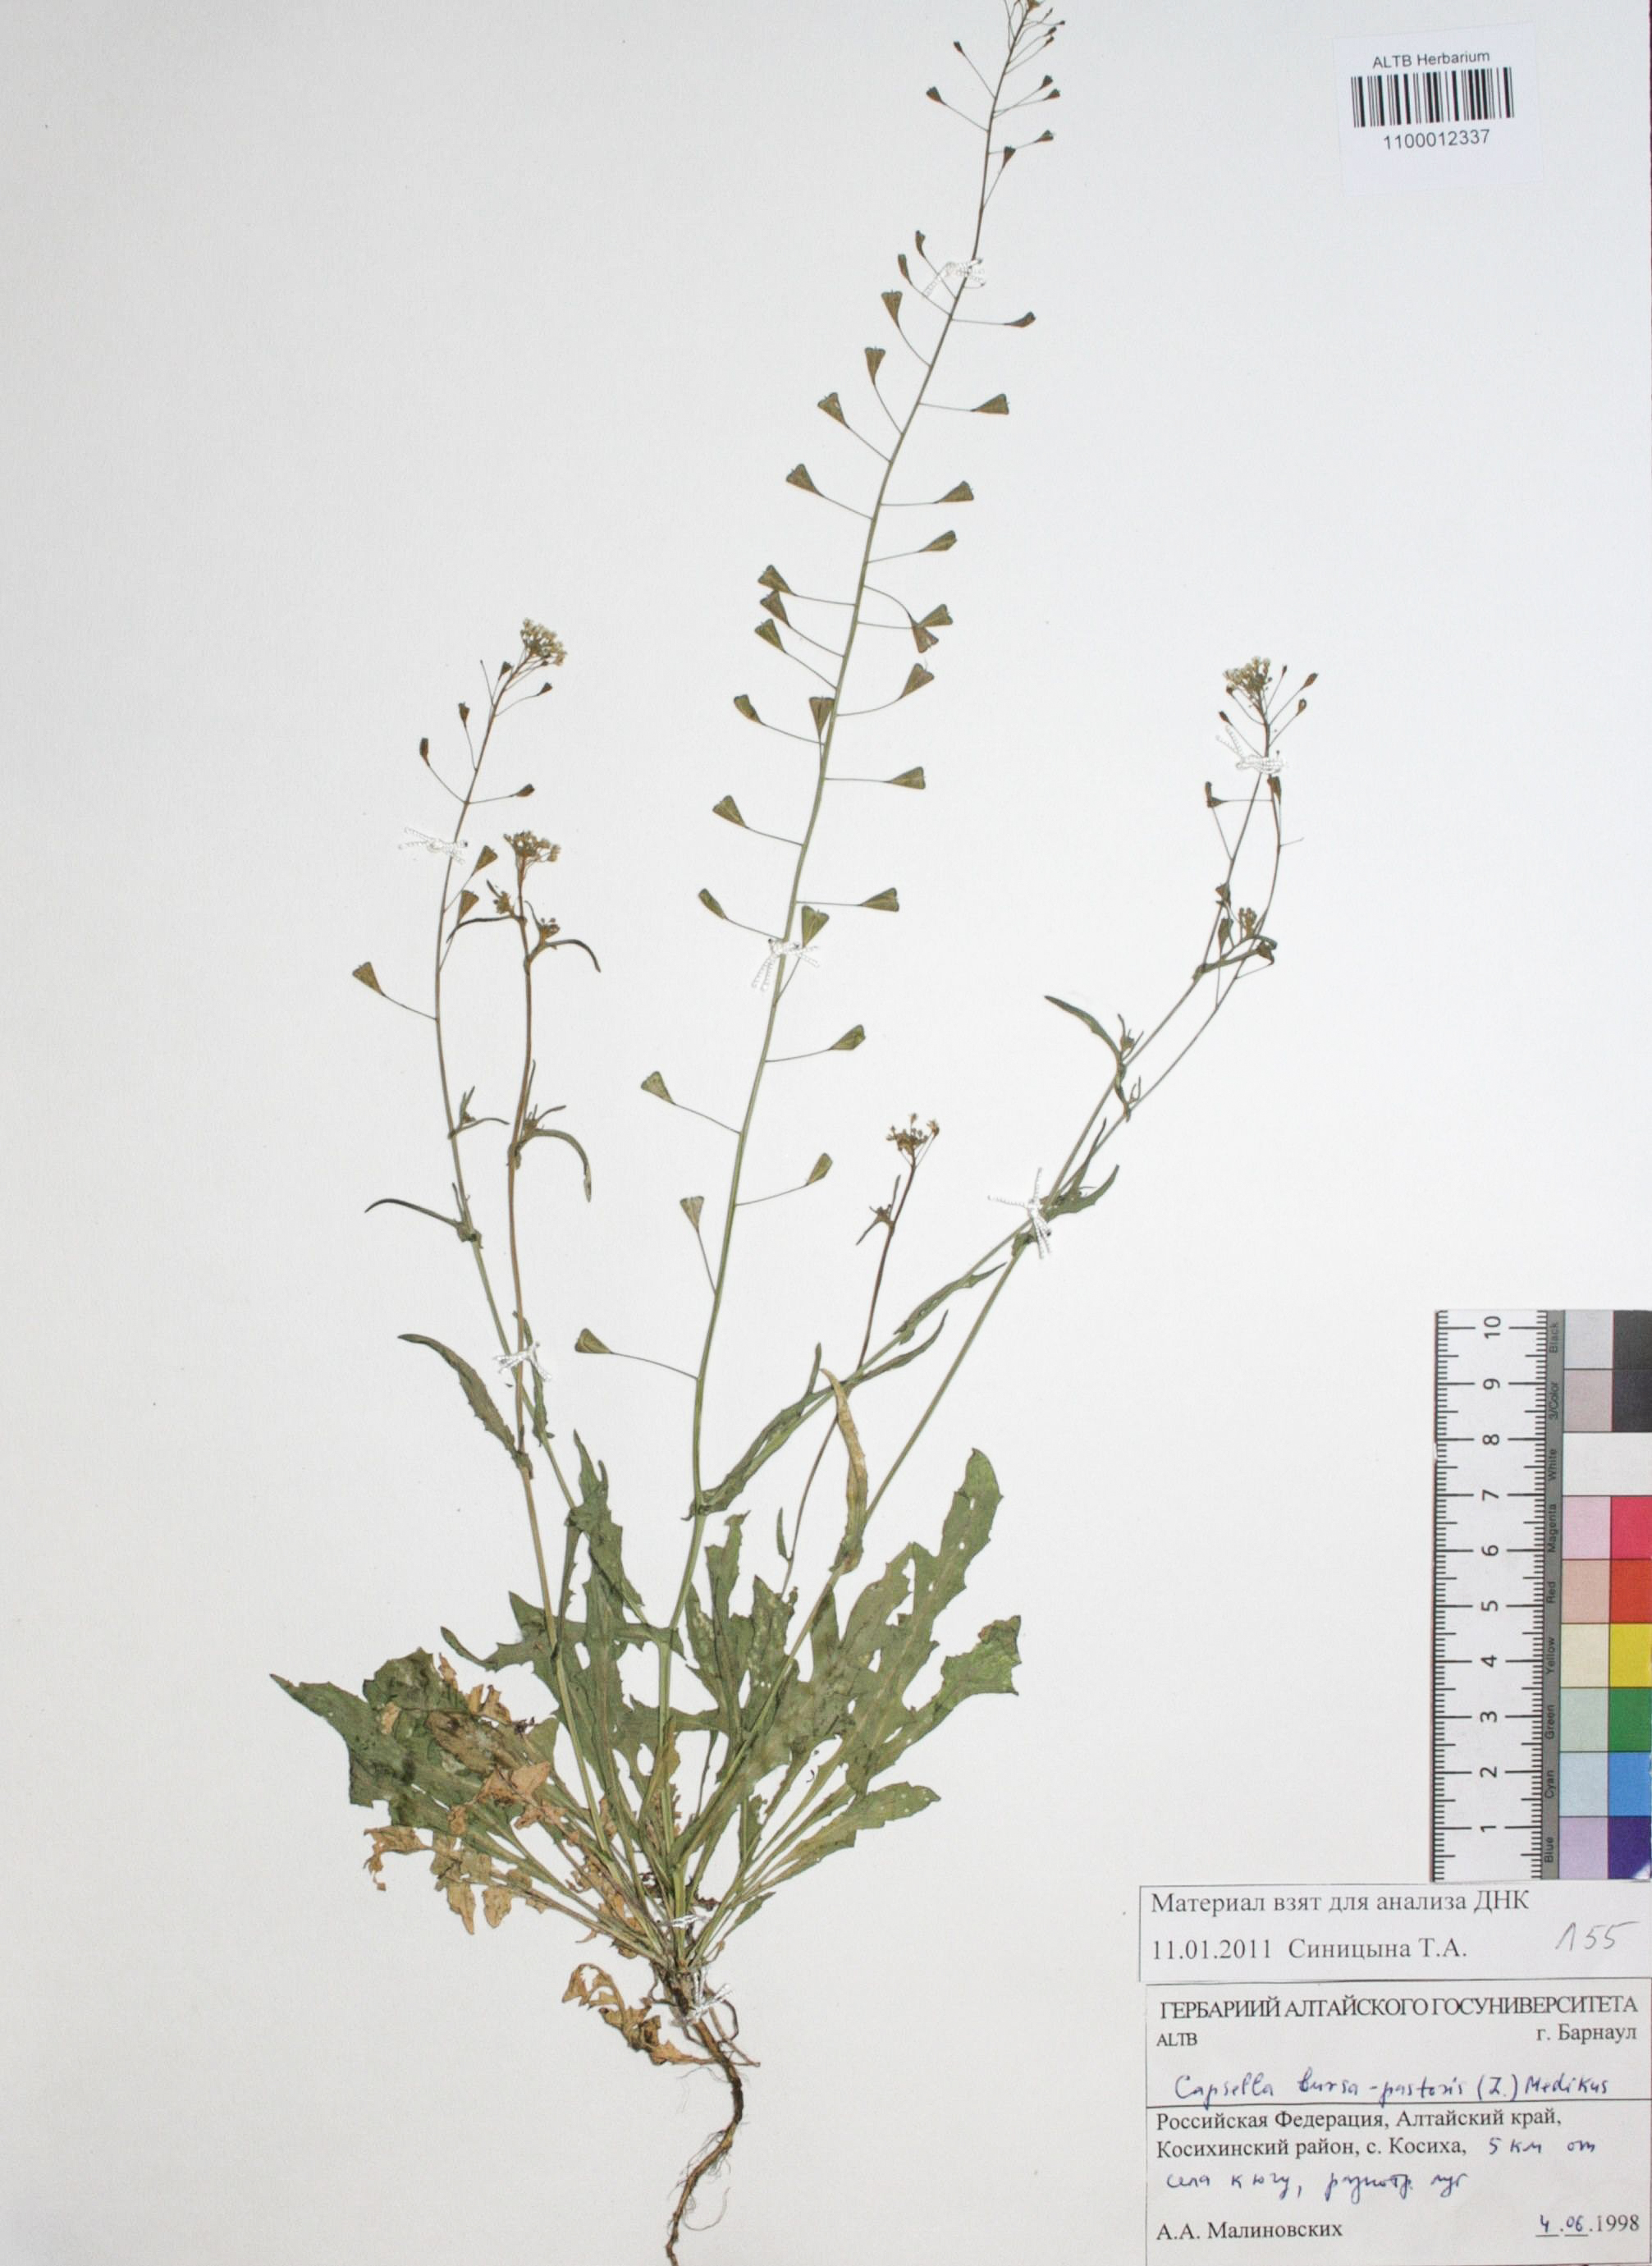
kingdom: Plantae
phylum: Tracheophyta
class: Magnoliopsida
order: Brassicales
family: Brassicaceae
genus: Capsella
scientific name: Capsella bursa-pastoris
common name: Shepherd's purse
